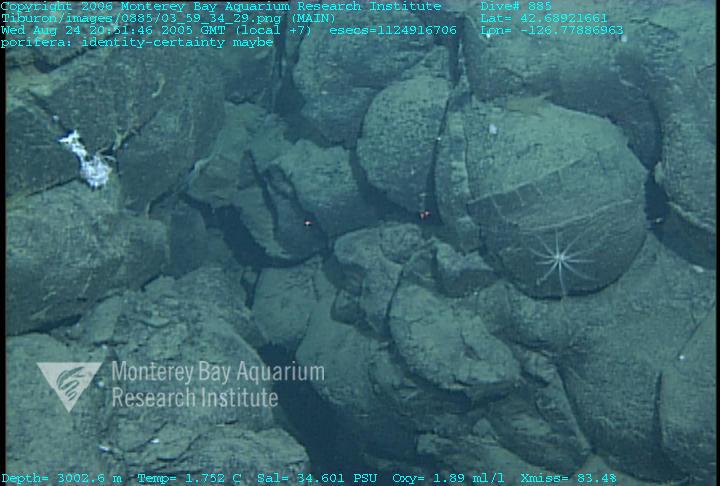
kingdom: Animalia
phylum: Porifera
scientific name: Porifera
